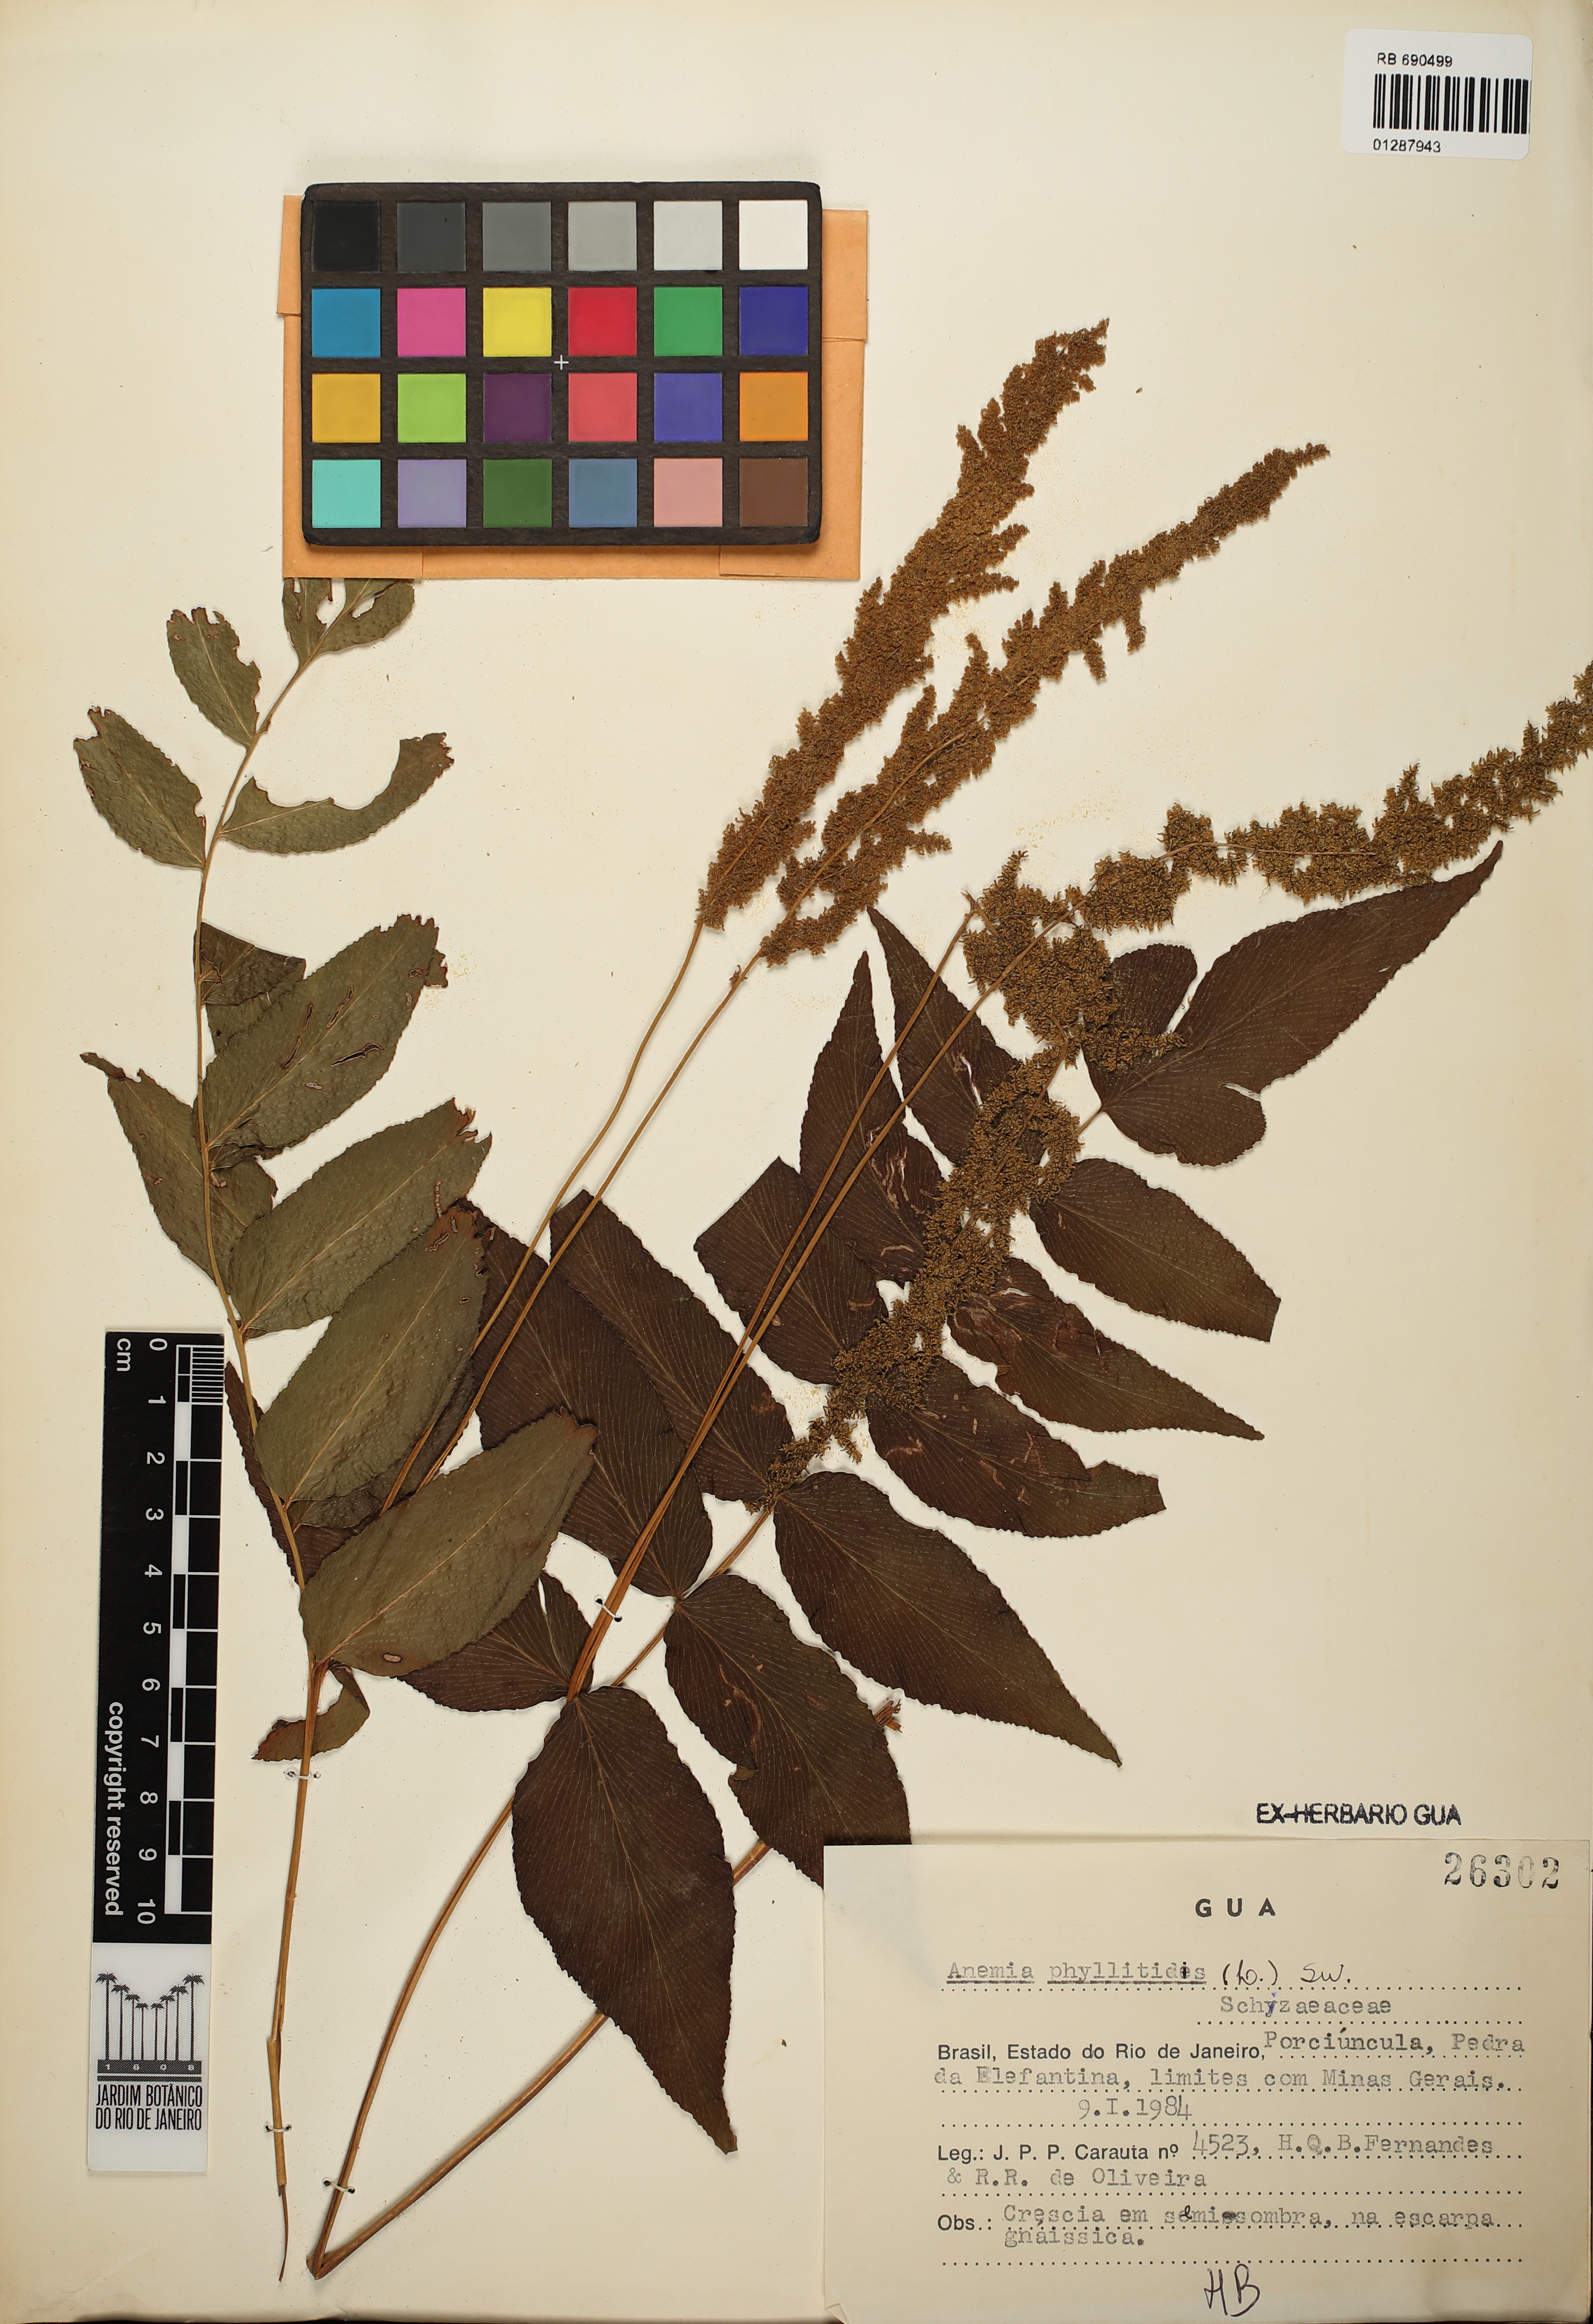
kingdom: Plantae
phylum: Tracheophyta
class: Polypodiopsida
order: Schizaeales
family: Anemiaceae
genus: Anemia
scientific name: Anemia phyllitidis
